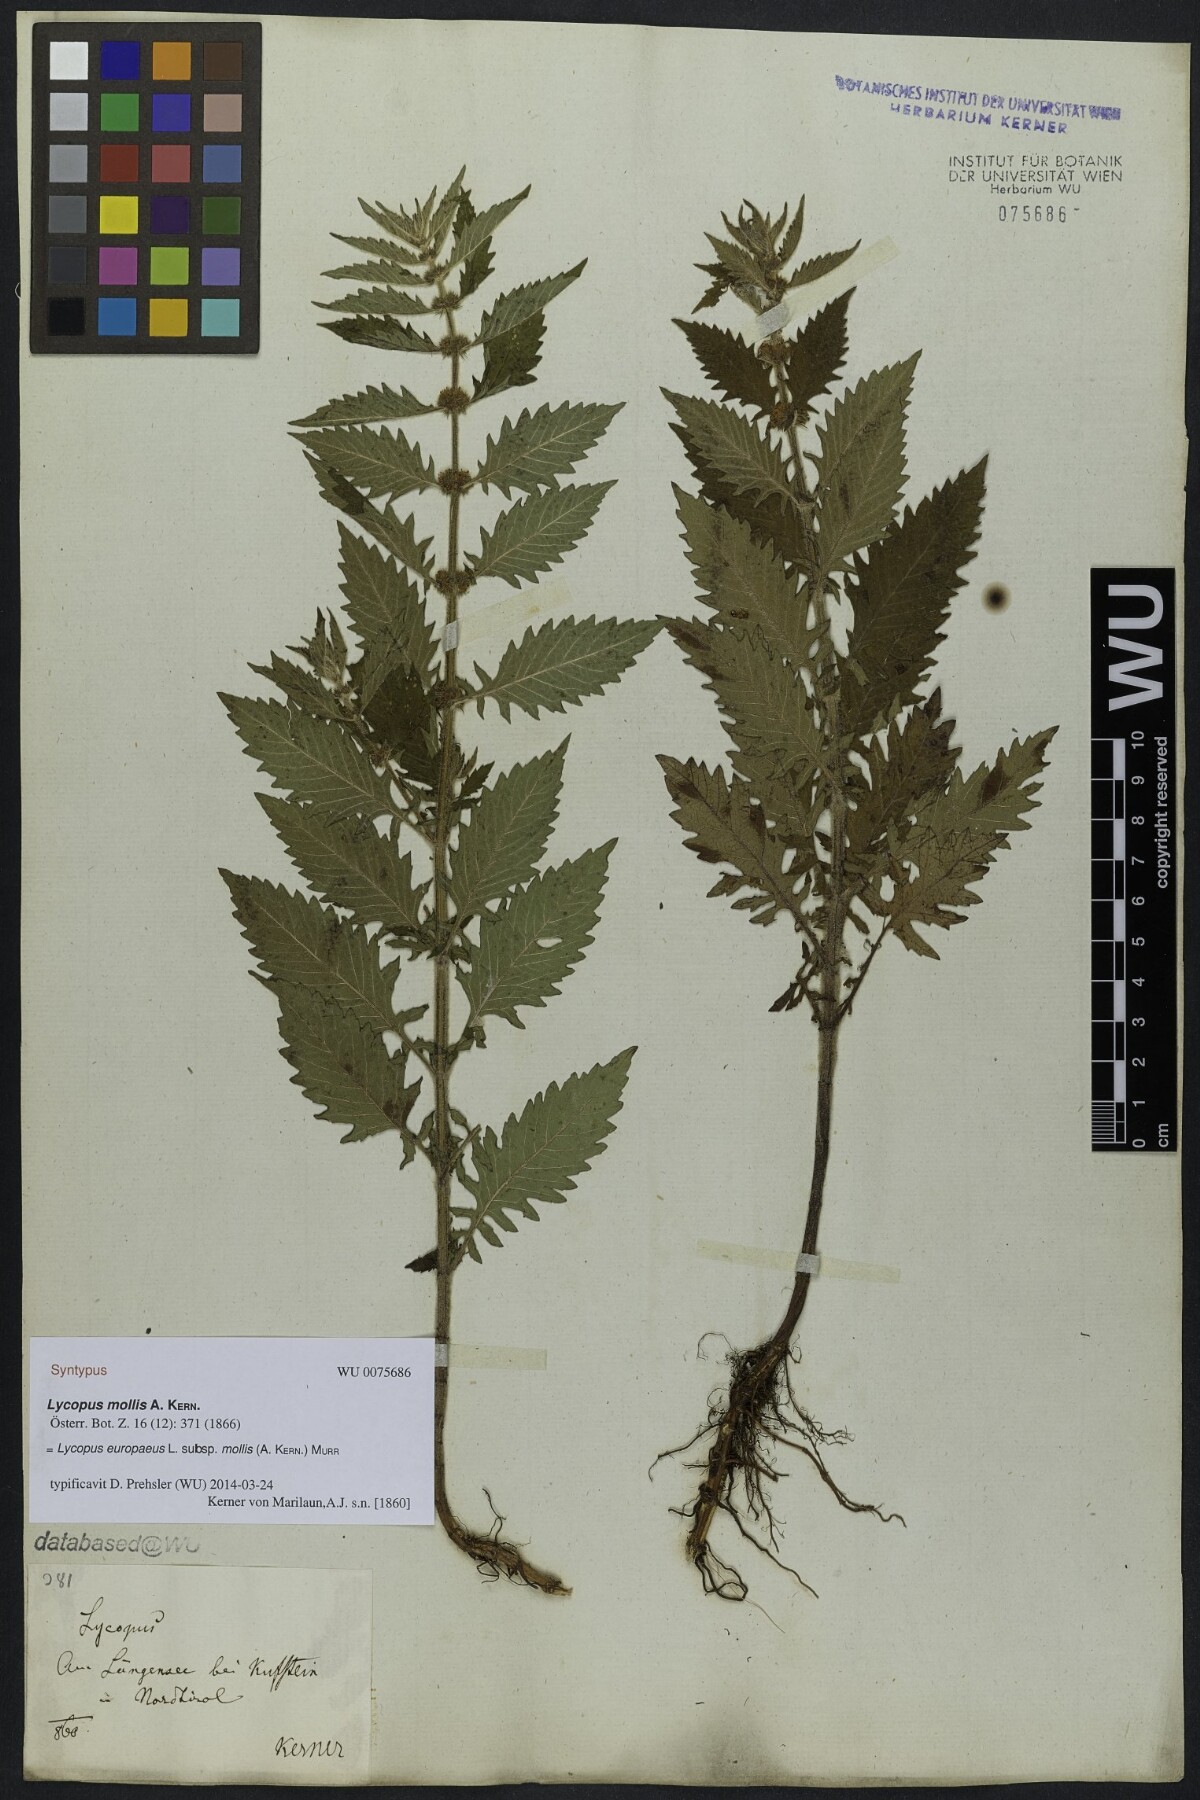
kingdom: Plantae
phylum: Tracheophyta
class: Magnoliopsida
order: Lamiales
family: Lamiaceae
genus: Lycopus
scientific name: Lycopus europaeus
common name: European bugleweed
